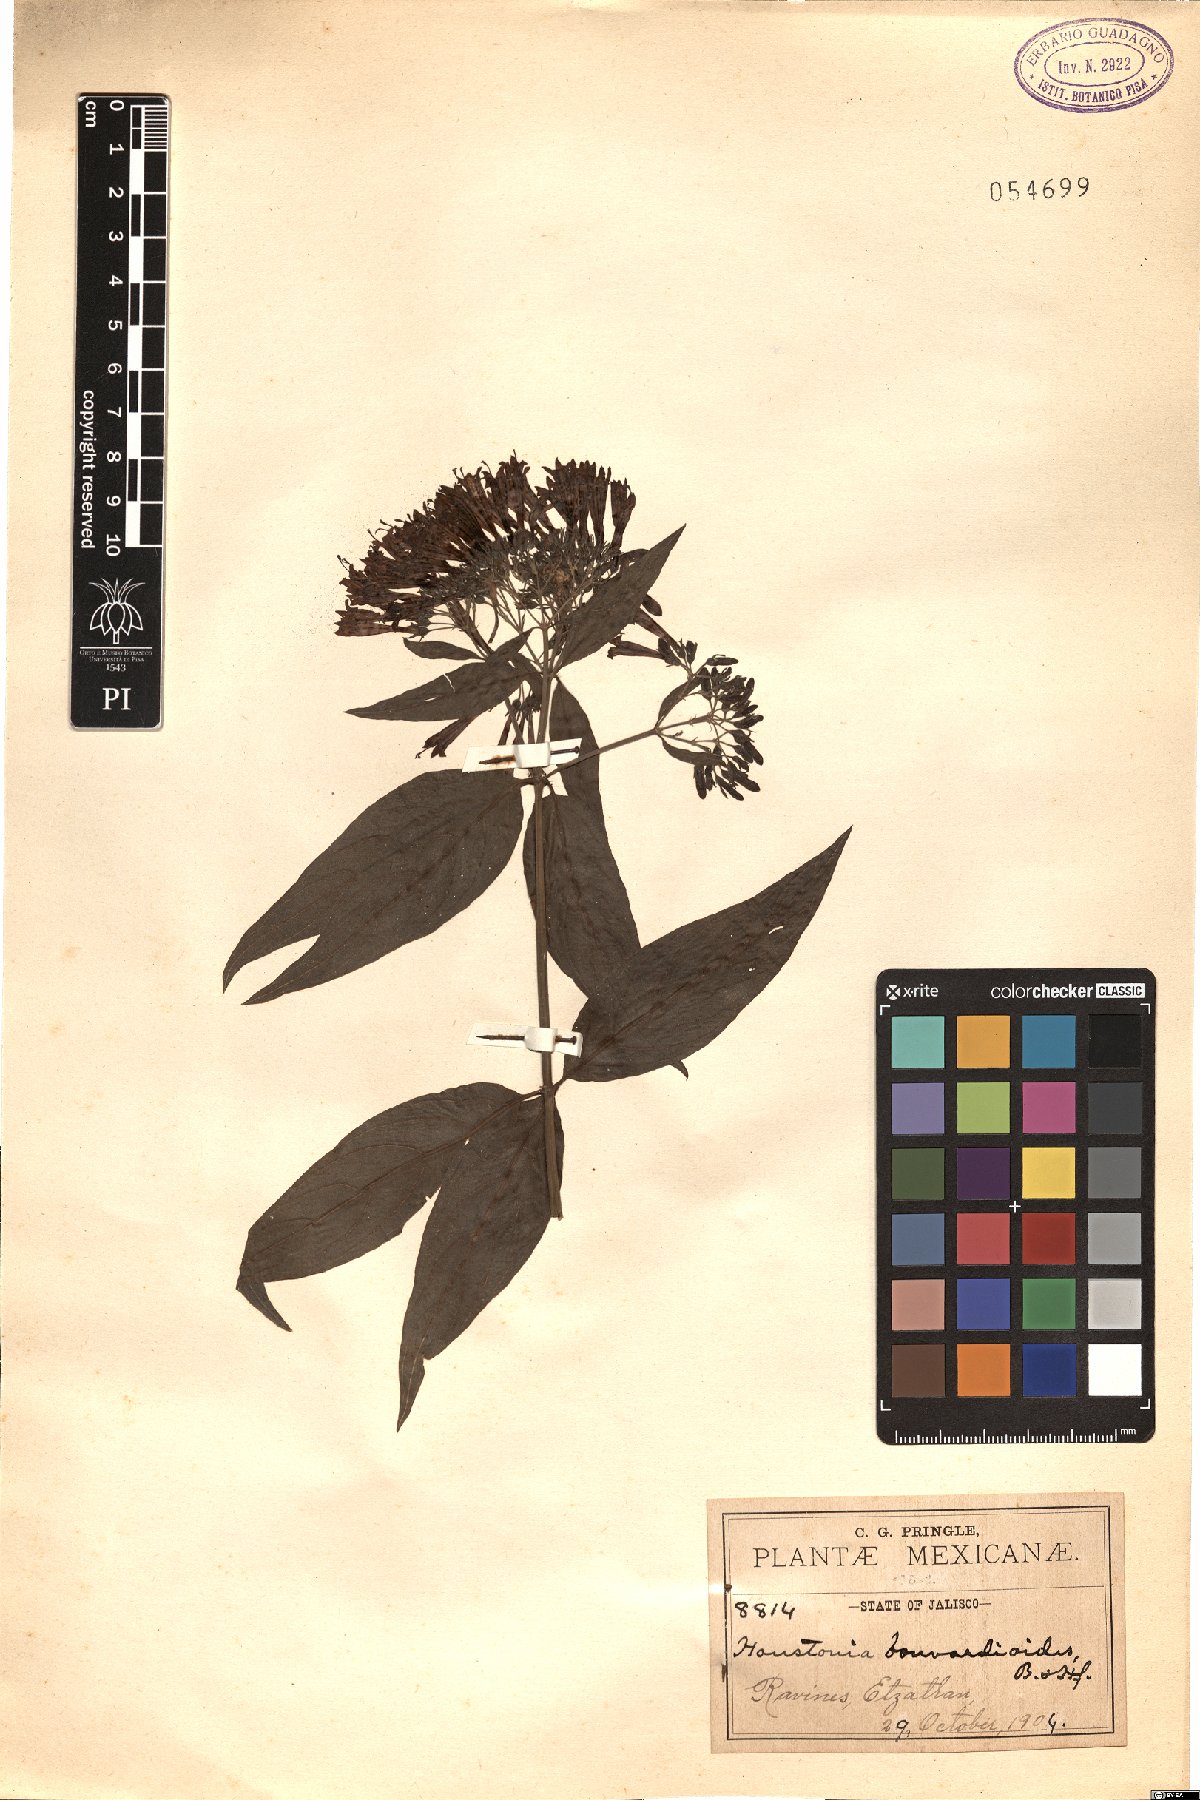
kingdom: Plantae
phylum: Tracheophyta
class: Magnoliopsida
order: Gentianales
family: Rubiaceae
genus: Bouvardia
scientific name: Bouvardia bouvardioides
